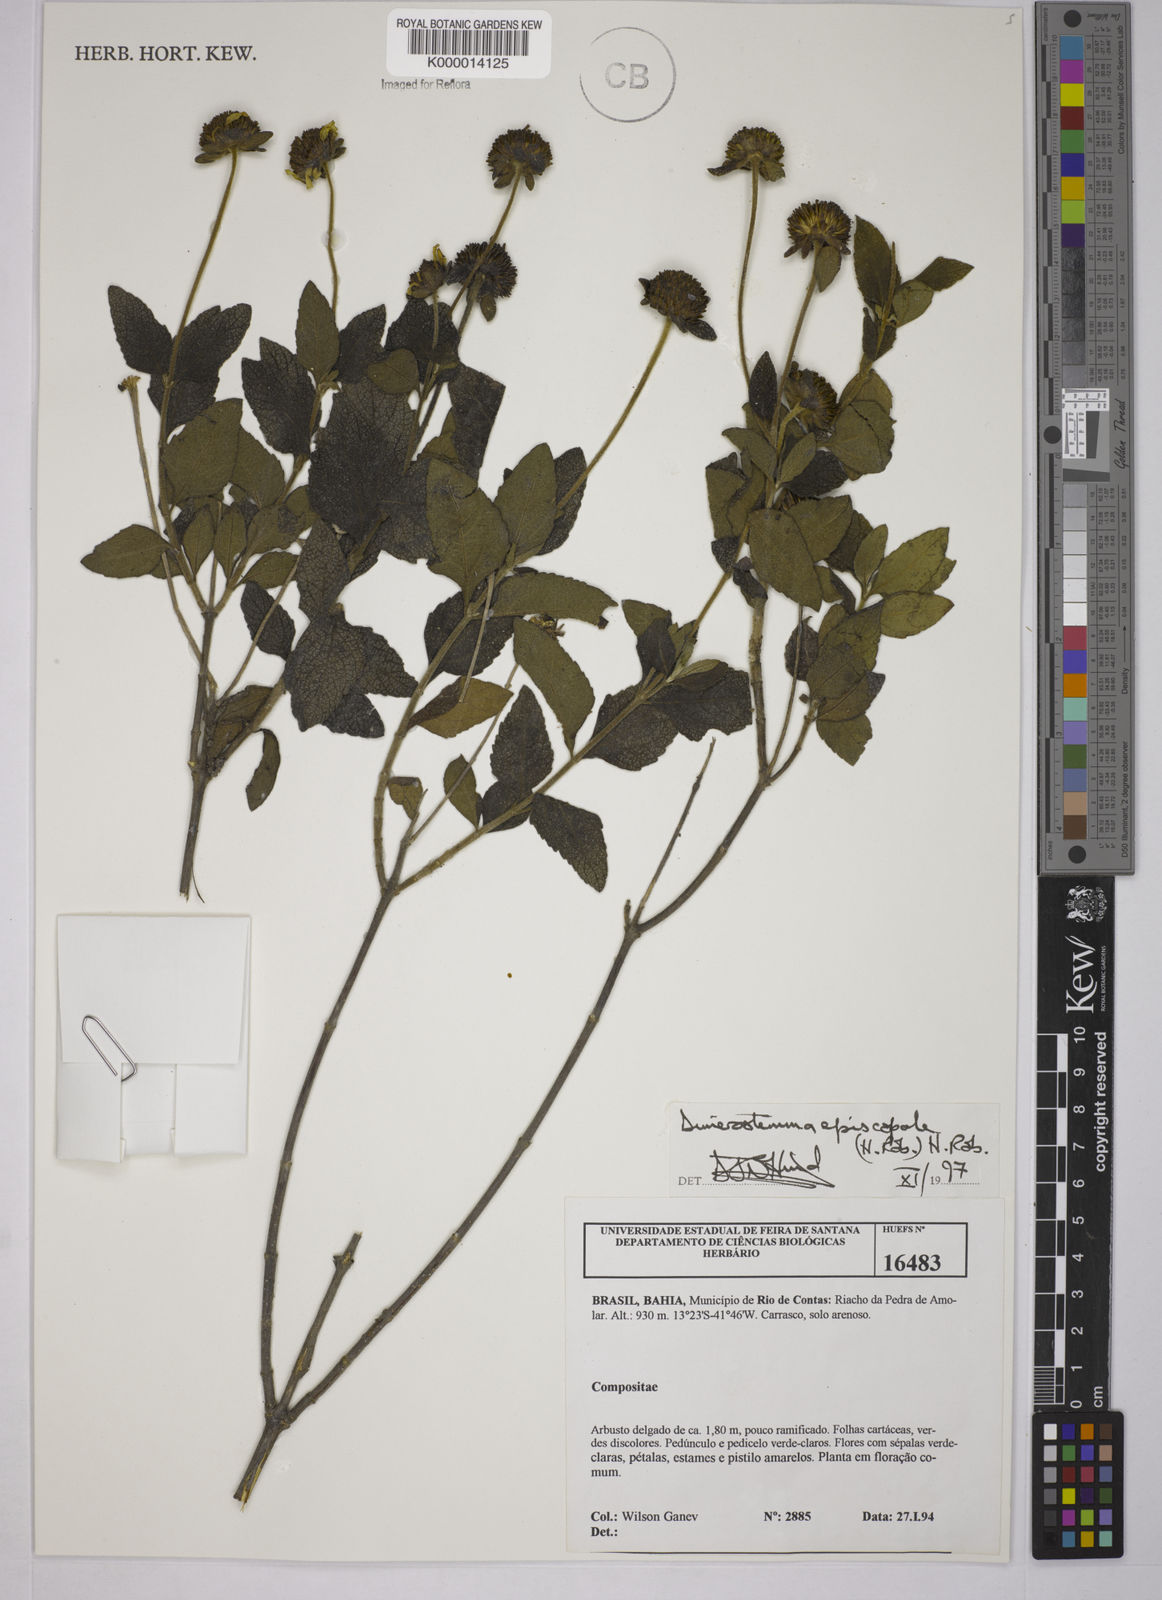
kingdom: Plantae
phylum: Tracheophyta
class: Magnoliopsida
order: Asterales
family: Asteraceae
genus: Dimerostemma
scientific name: Dimerostemma episcopale
